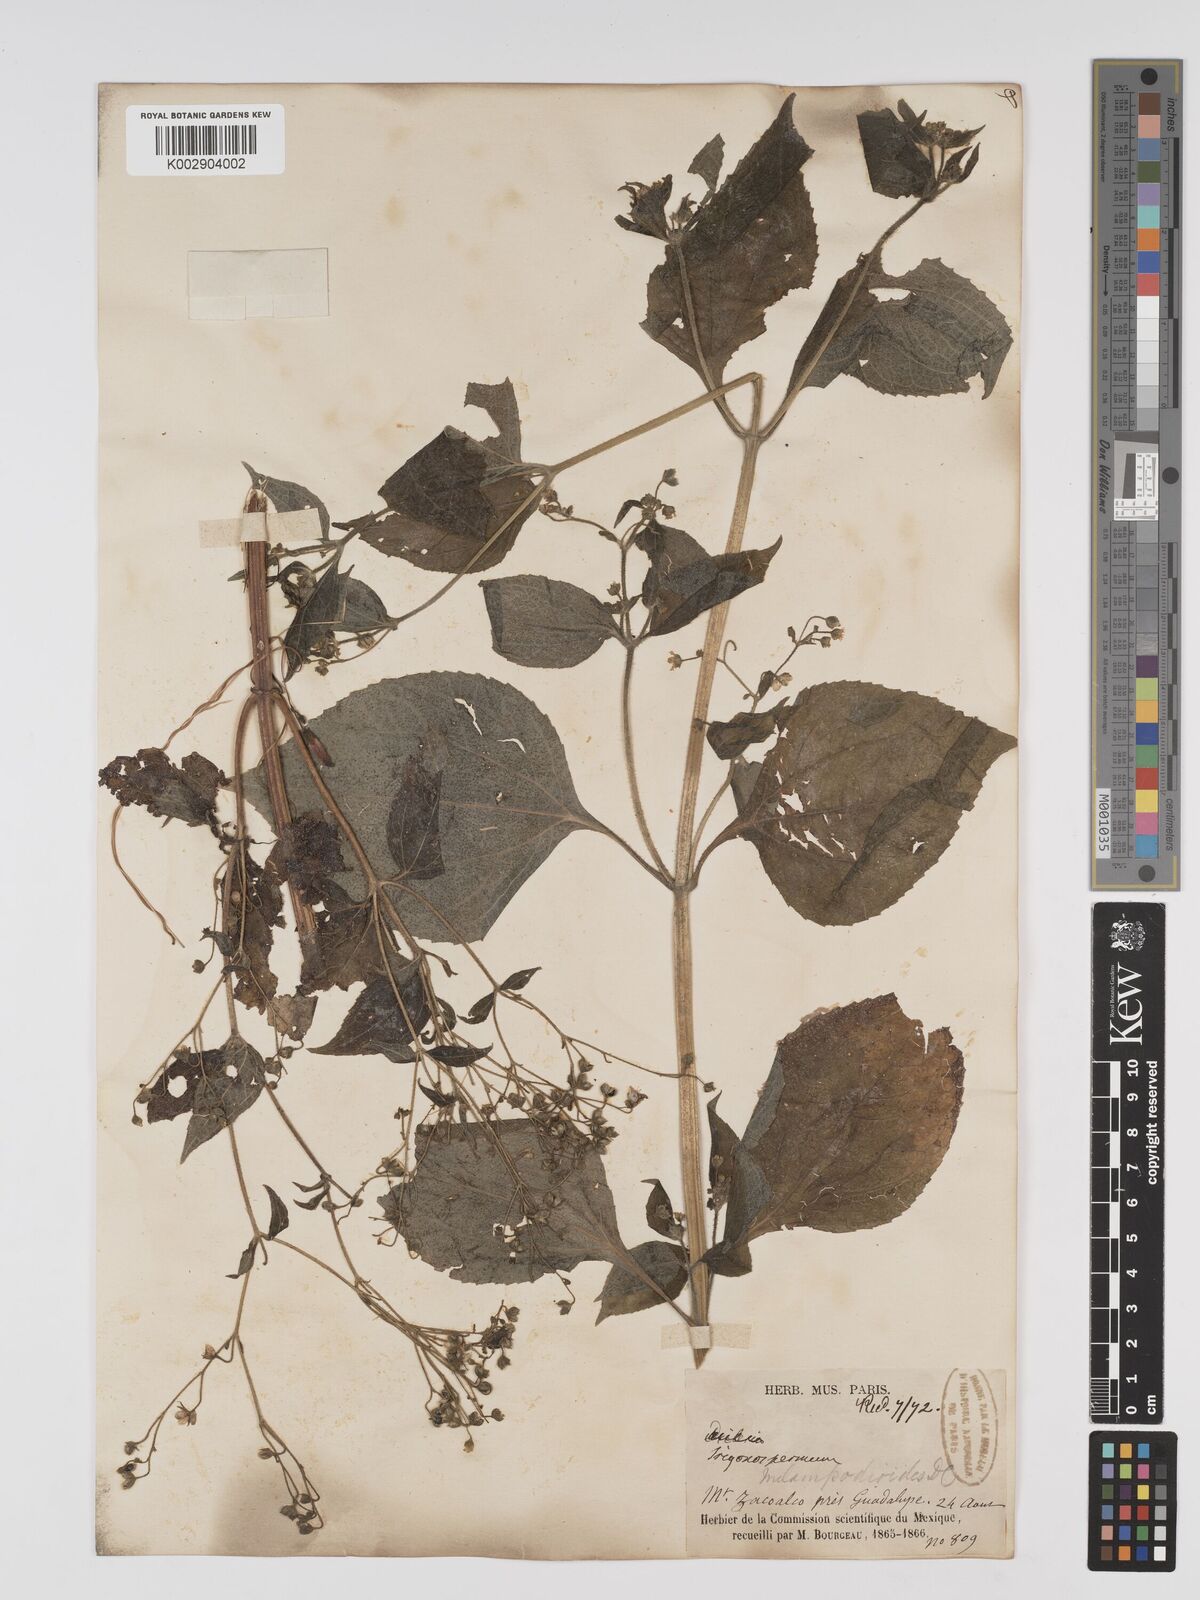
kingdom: Plantae
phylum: Tracheophyta
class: Magnoliopsida
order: Asterales
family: Asteraceae
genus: Trigonospermum
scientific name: Trigonospermum melampodioides
